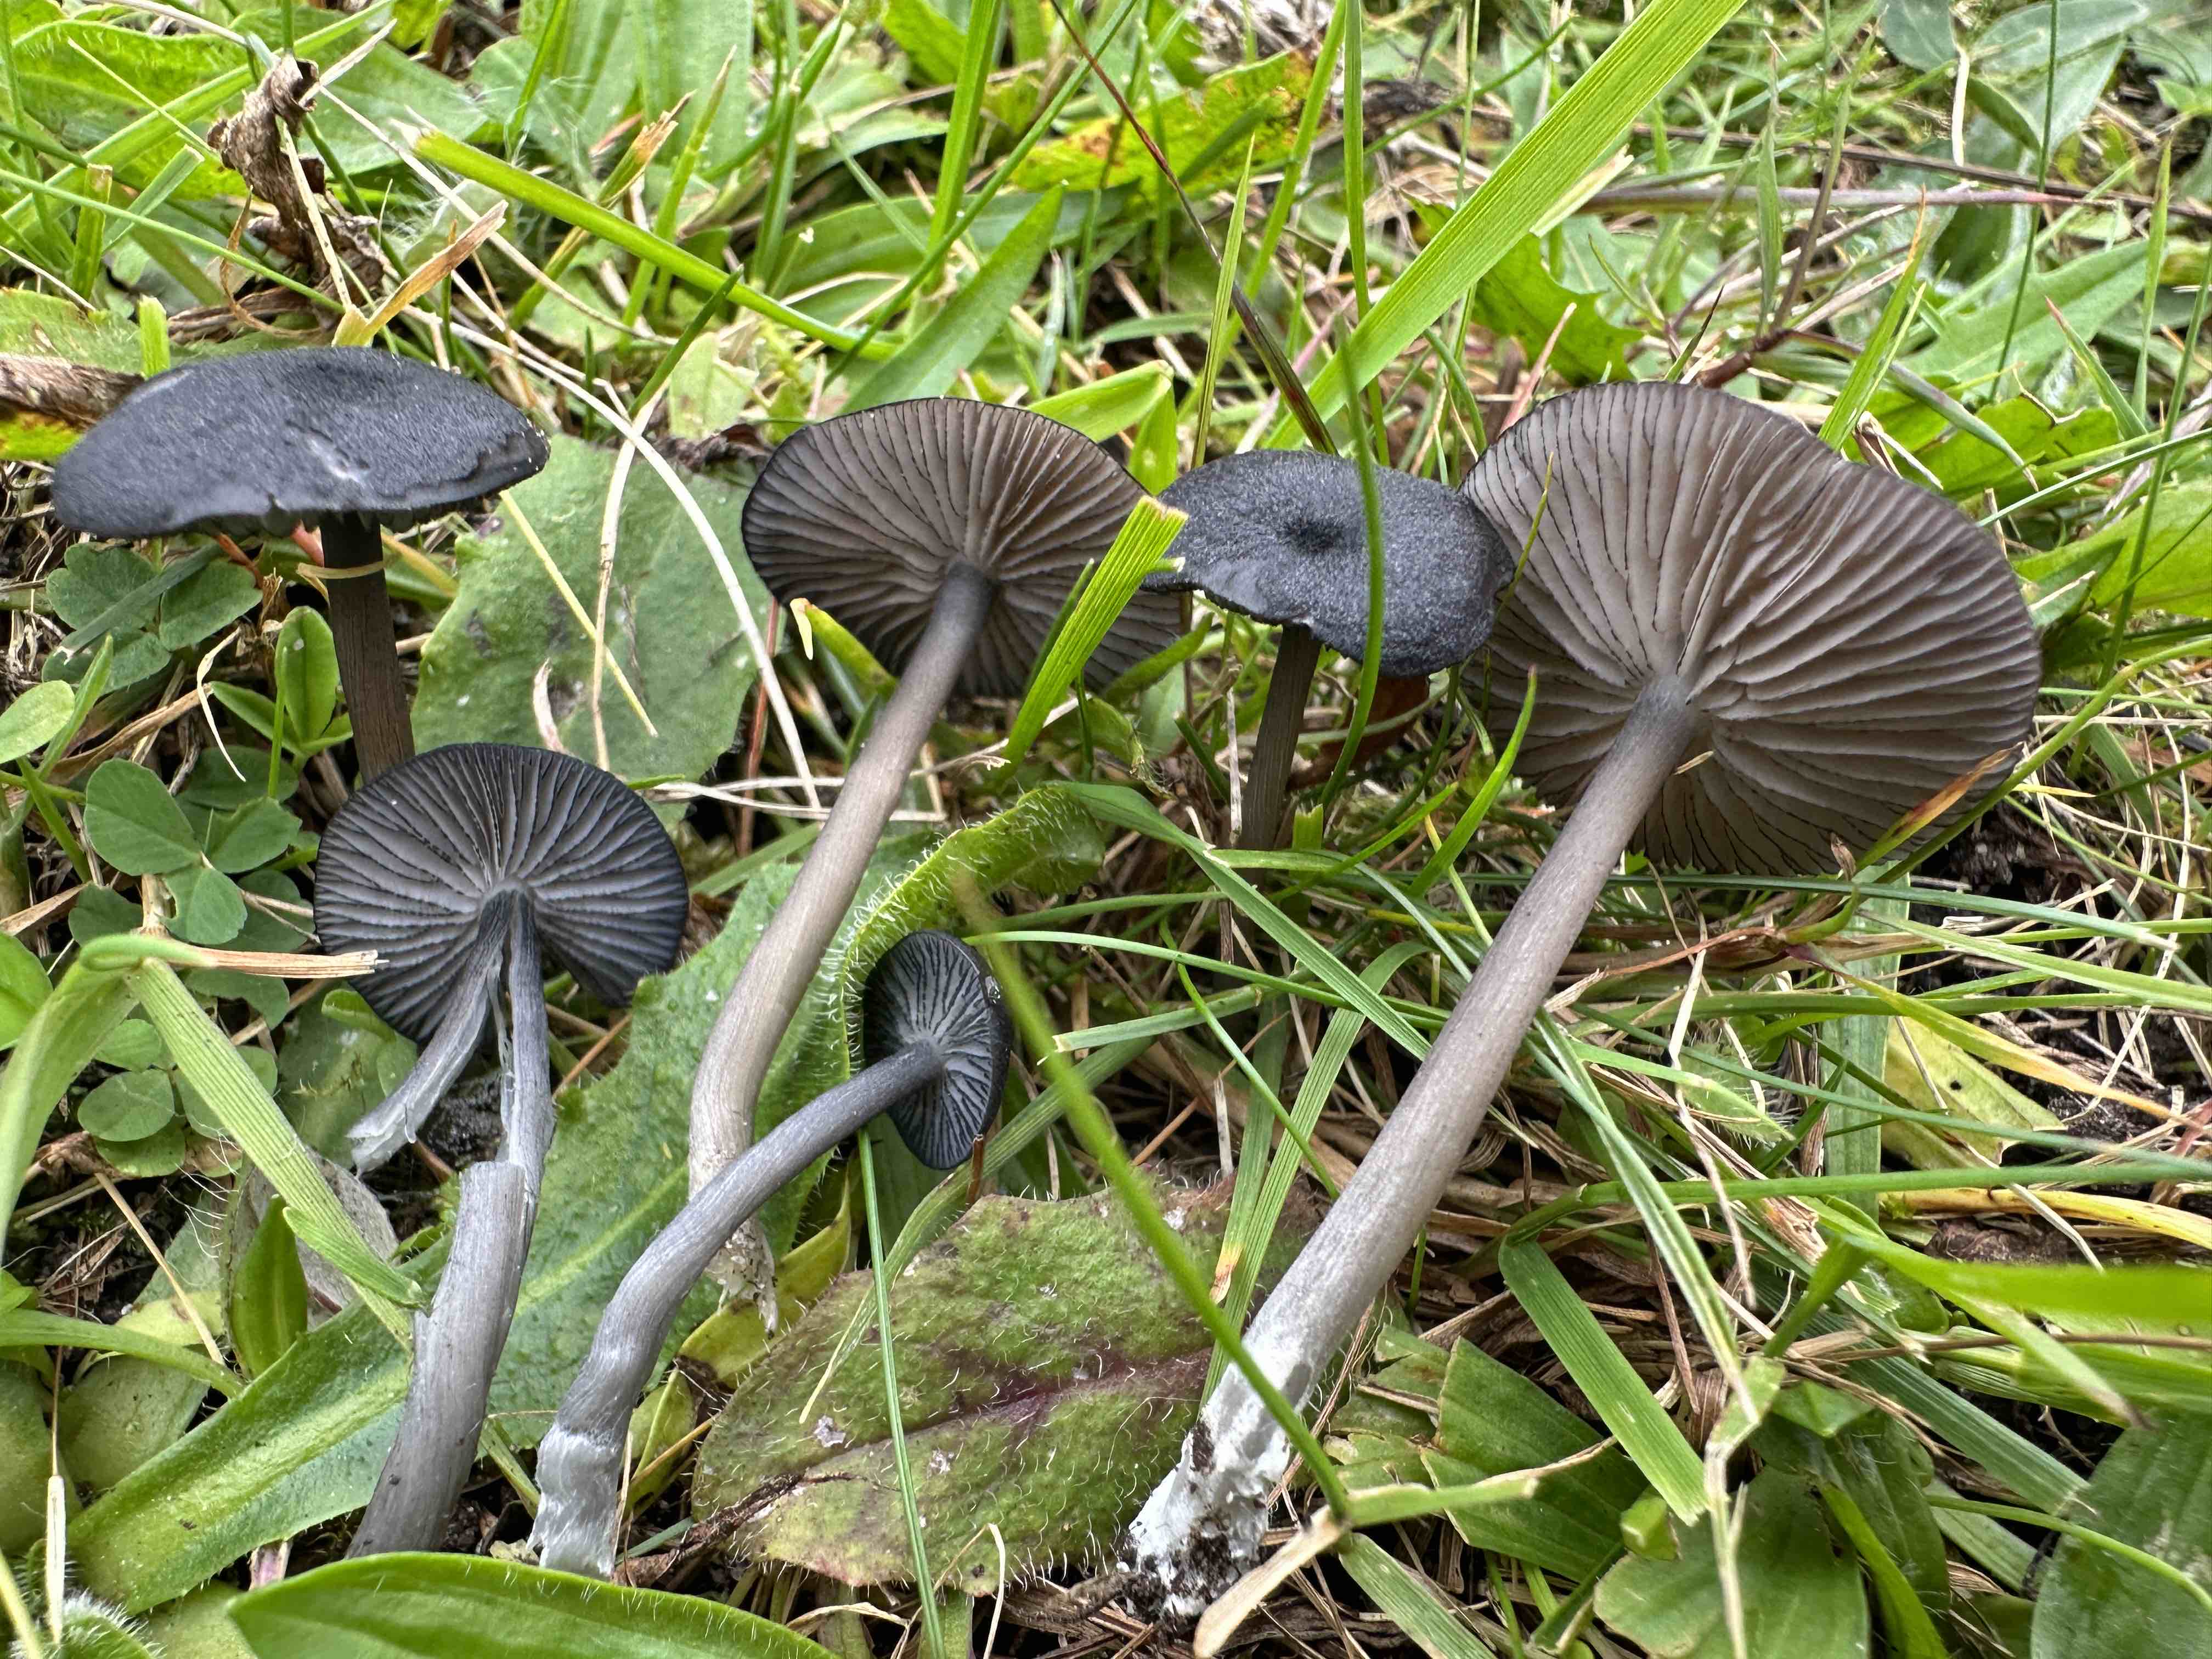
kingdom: Fungi
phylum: Basidiomycota
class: Agaricomycetes
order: Agaricales
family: Entolomataceae
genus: Entoloma
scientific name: Entoloma
